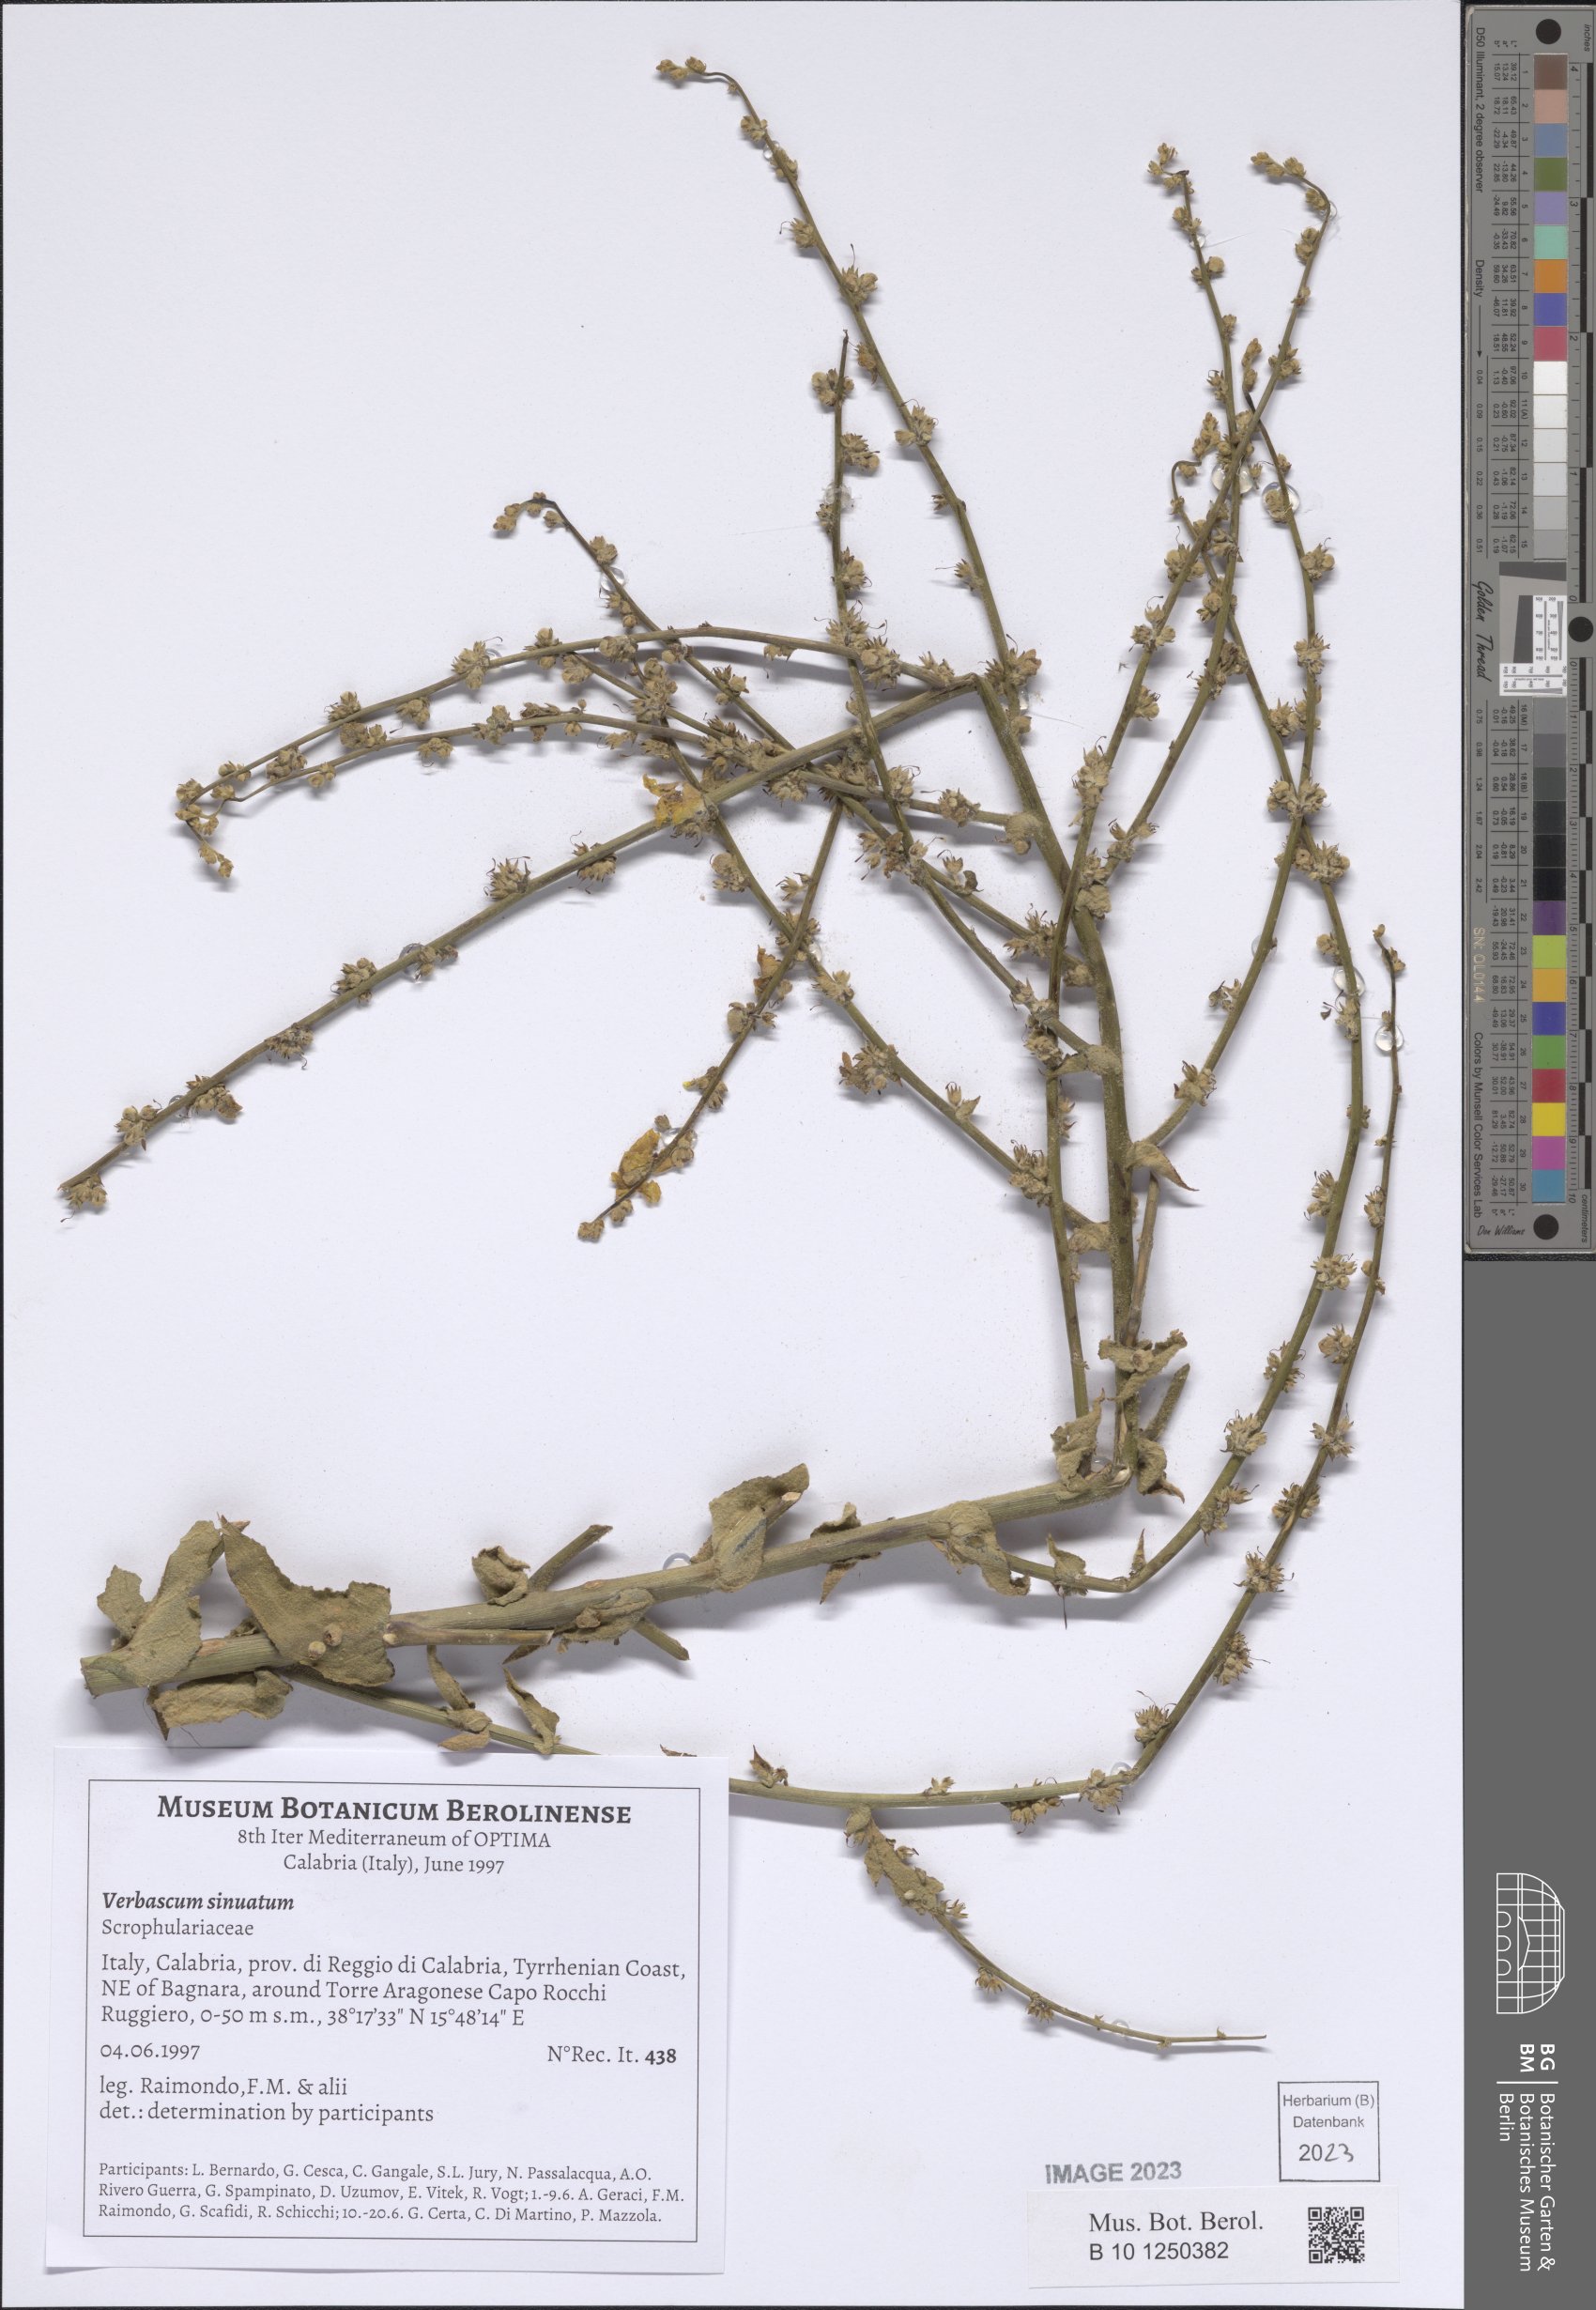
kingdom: Plantae
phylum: Tracheophyta
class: Magnoliopsida
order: Lamiales
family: Scrophulariaceae
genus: Verbascum
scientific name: Verbascum sinuatum
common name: Wavyleaf mullein
